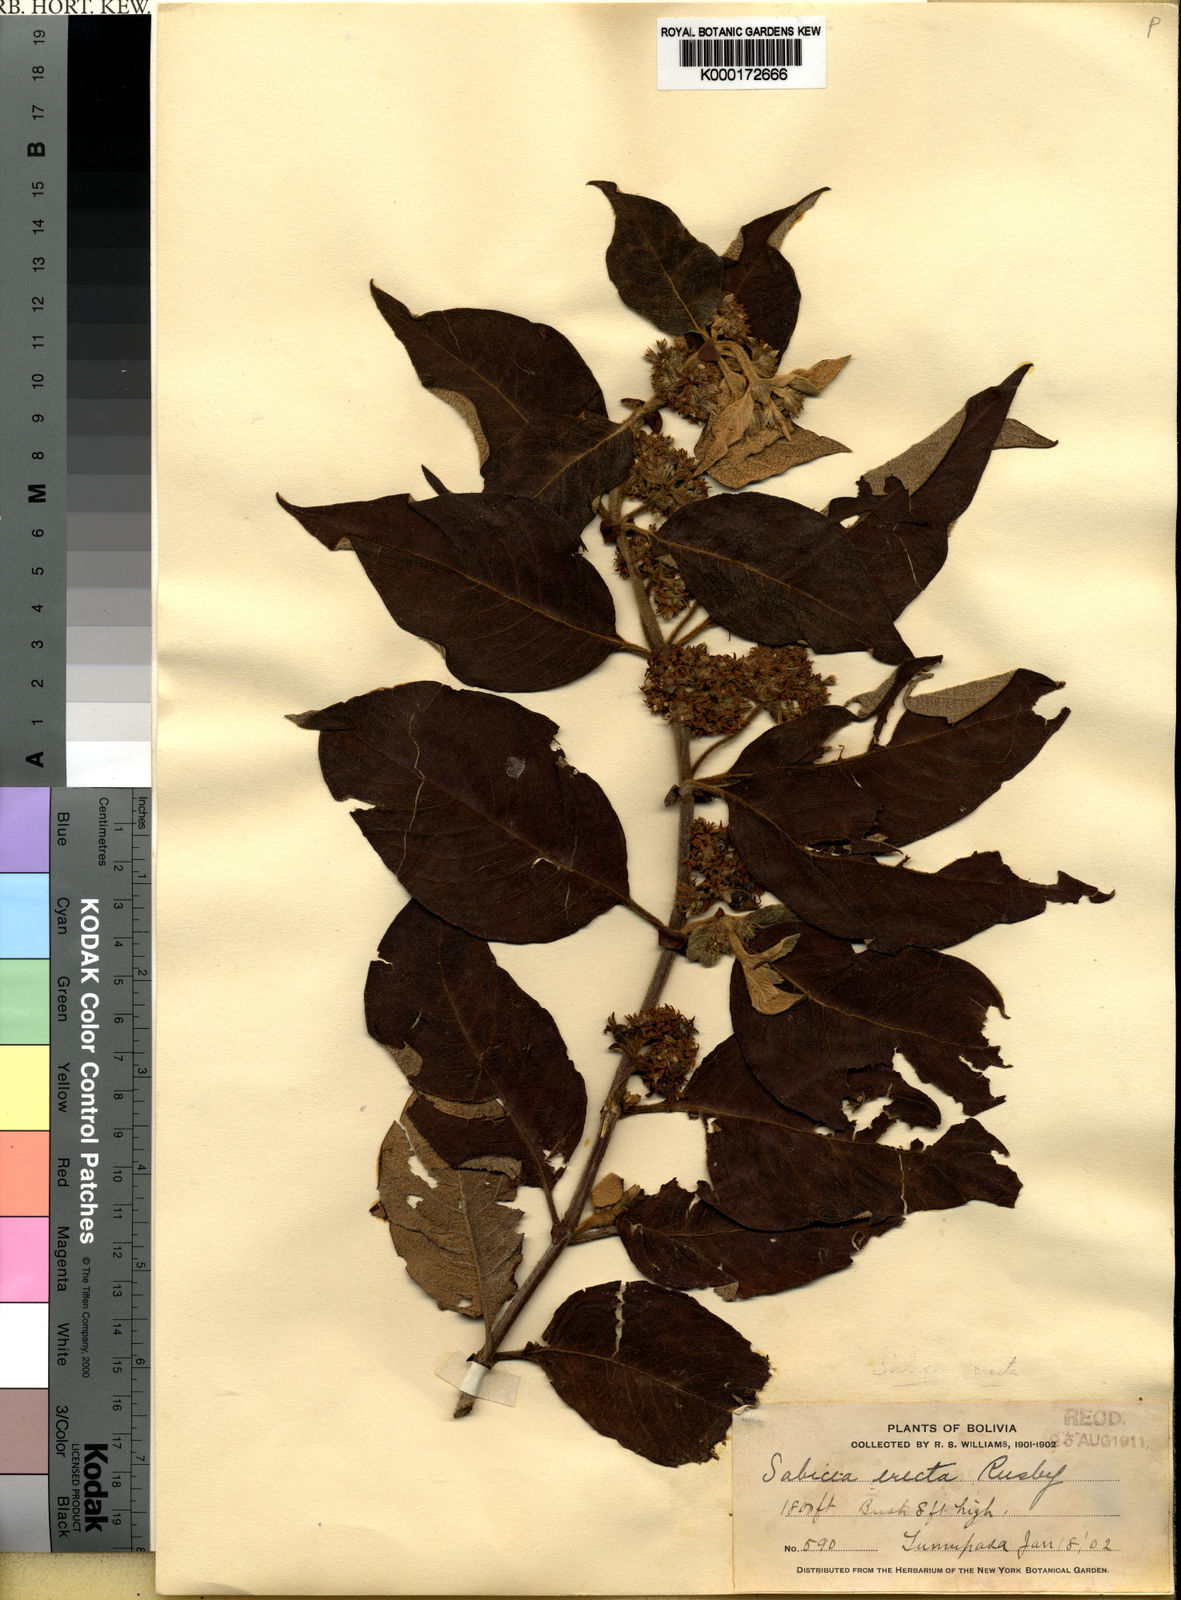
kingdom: Plantae
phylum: Tracheophyta
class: Magnoliopsida
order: Gentianales
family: Rubiaceae
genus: Sabicea
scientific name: Sabicea erecta
